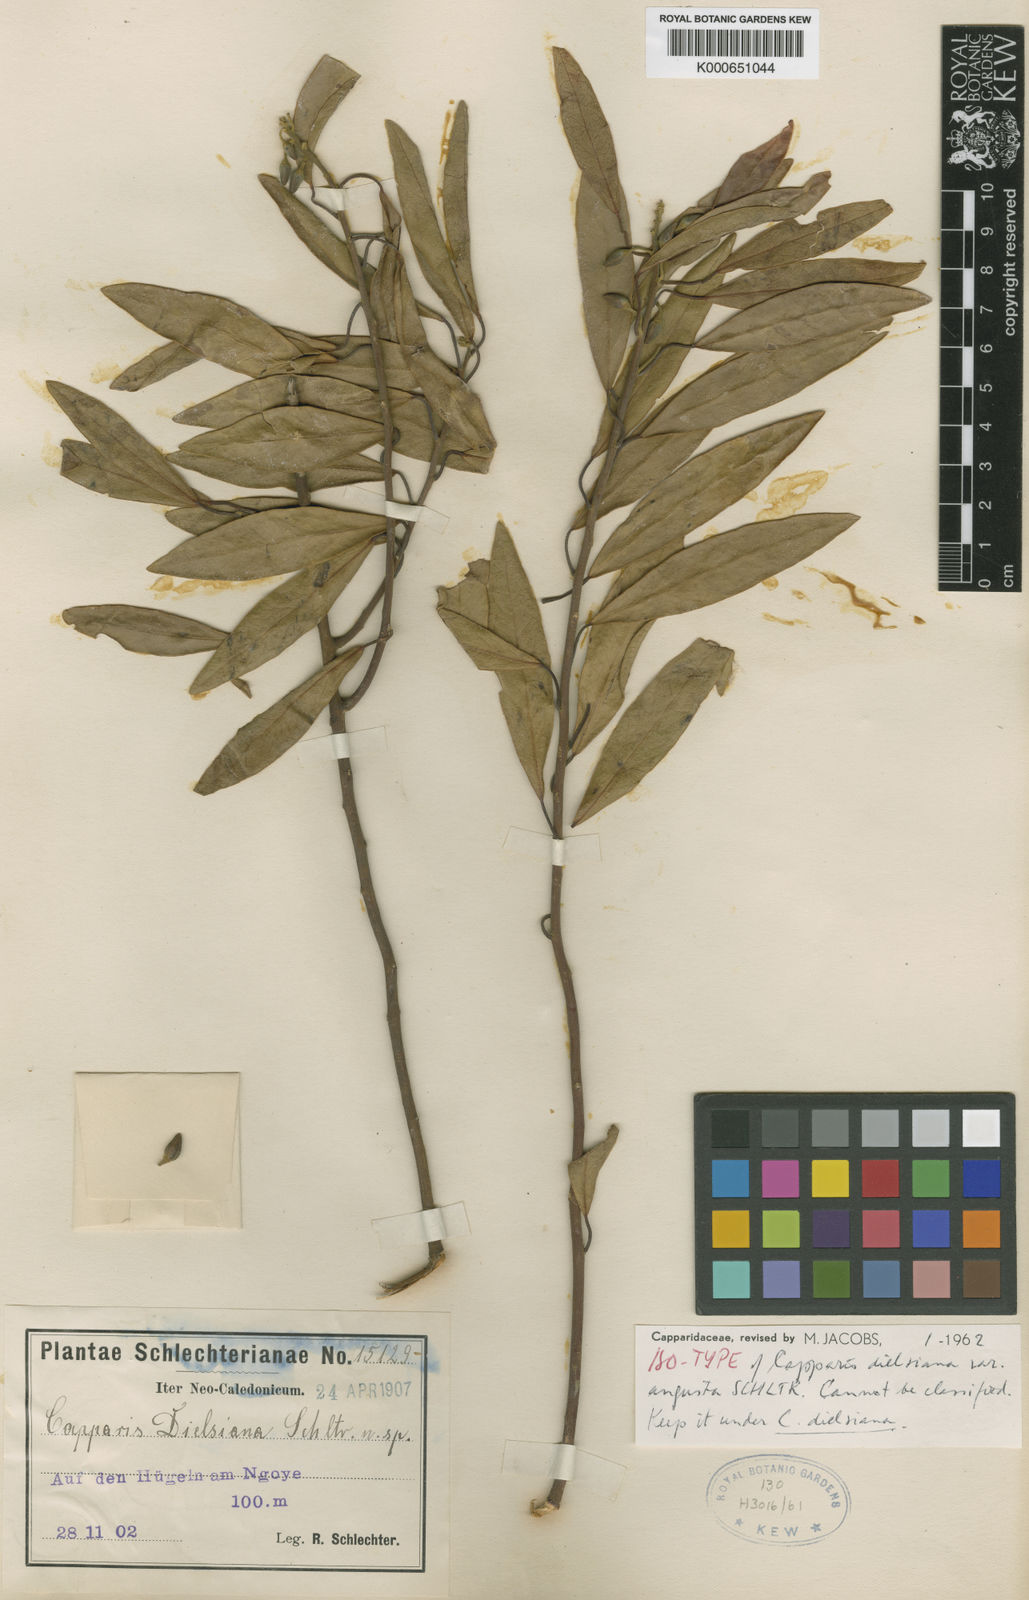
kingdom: Plantae
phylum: Tracheophyta
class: Magnoliopsida
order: Brassicales
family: Capparaceae
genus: Capparis
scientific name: Capparis artensis
